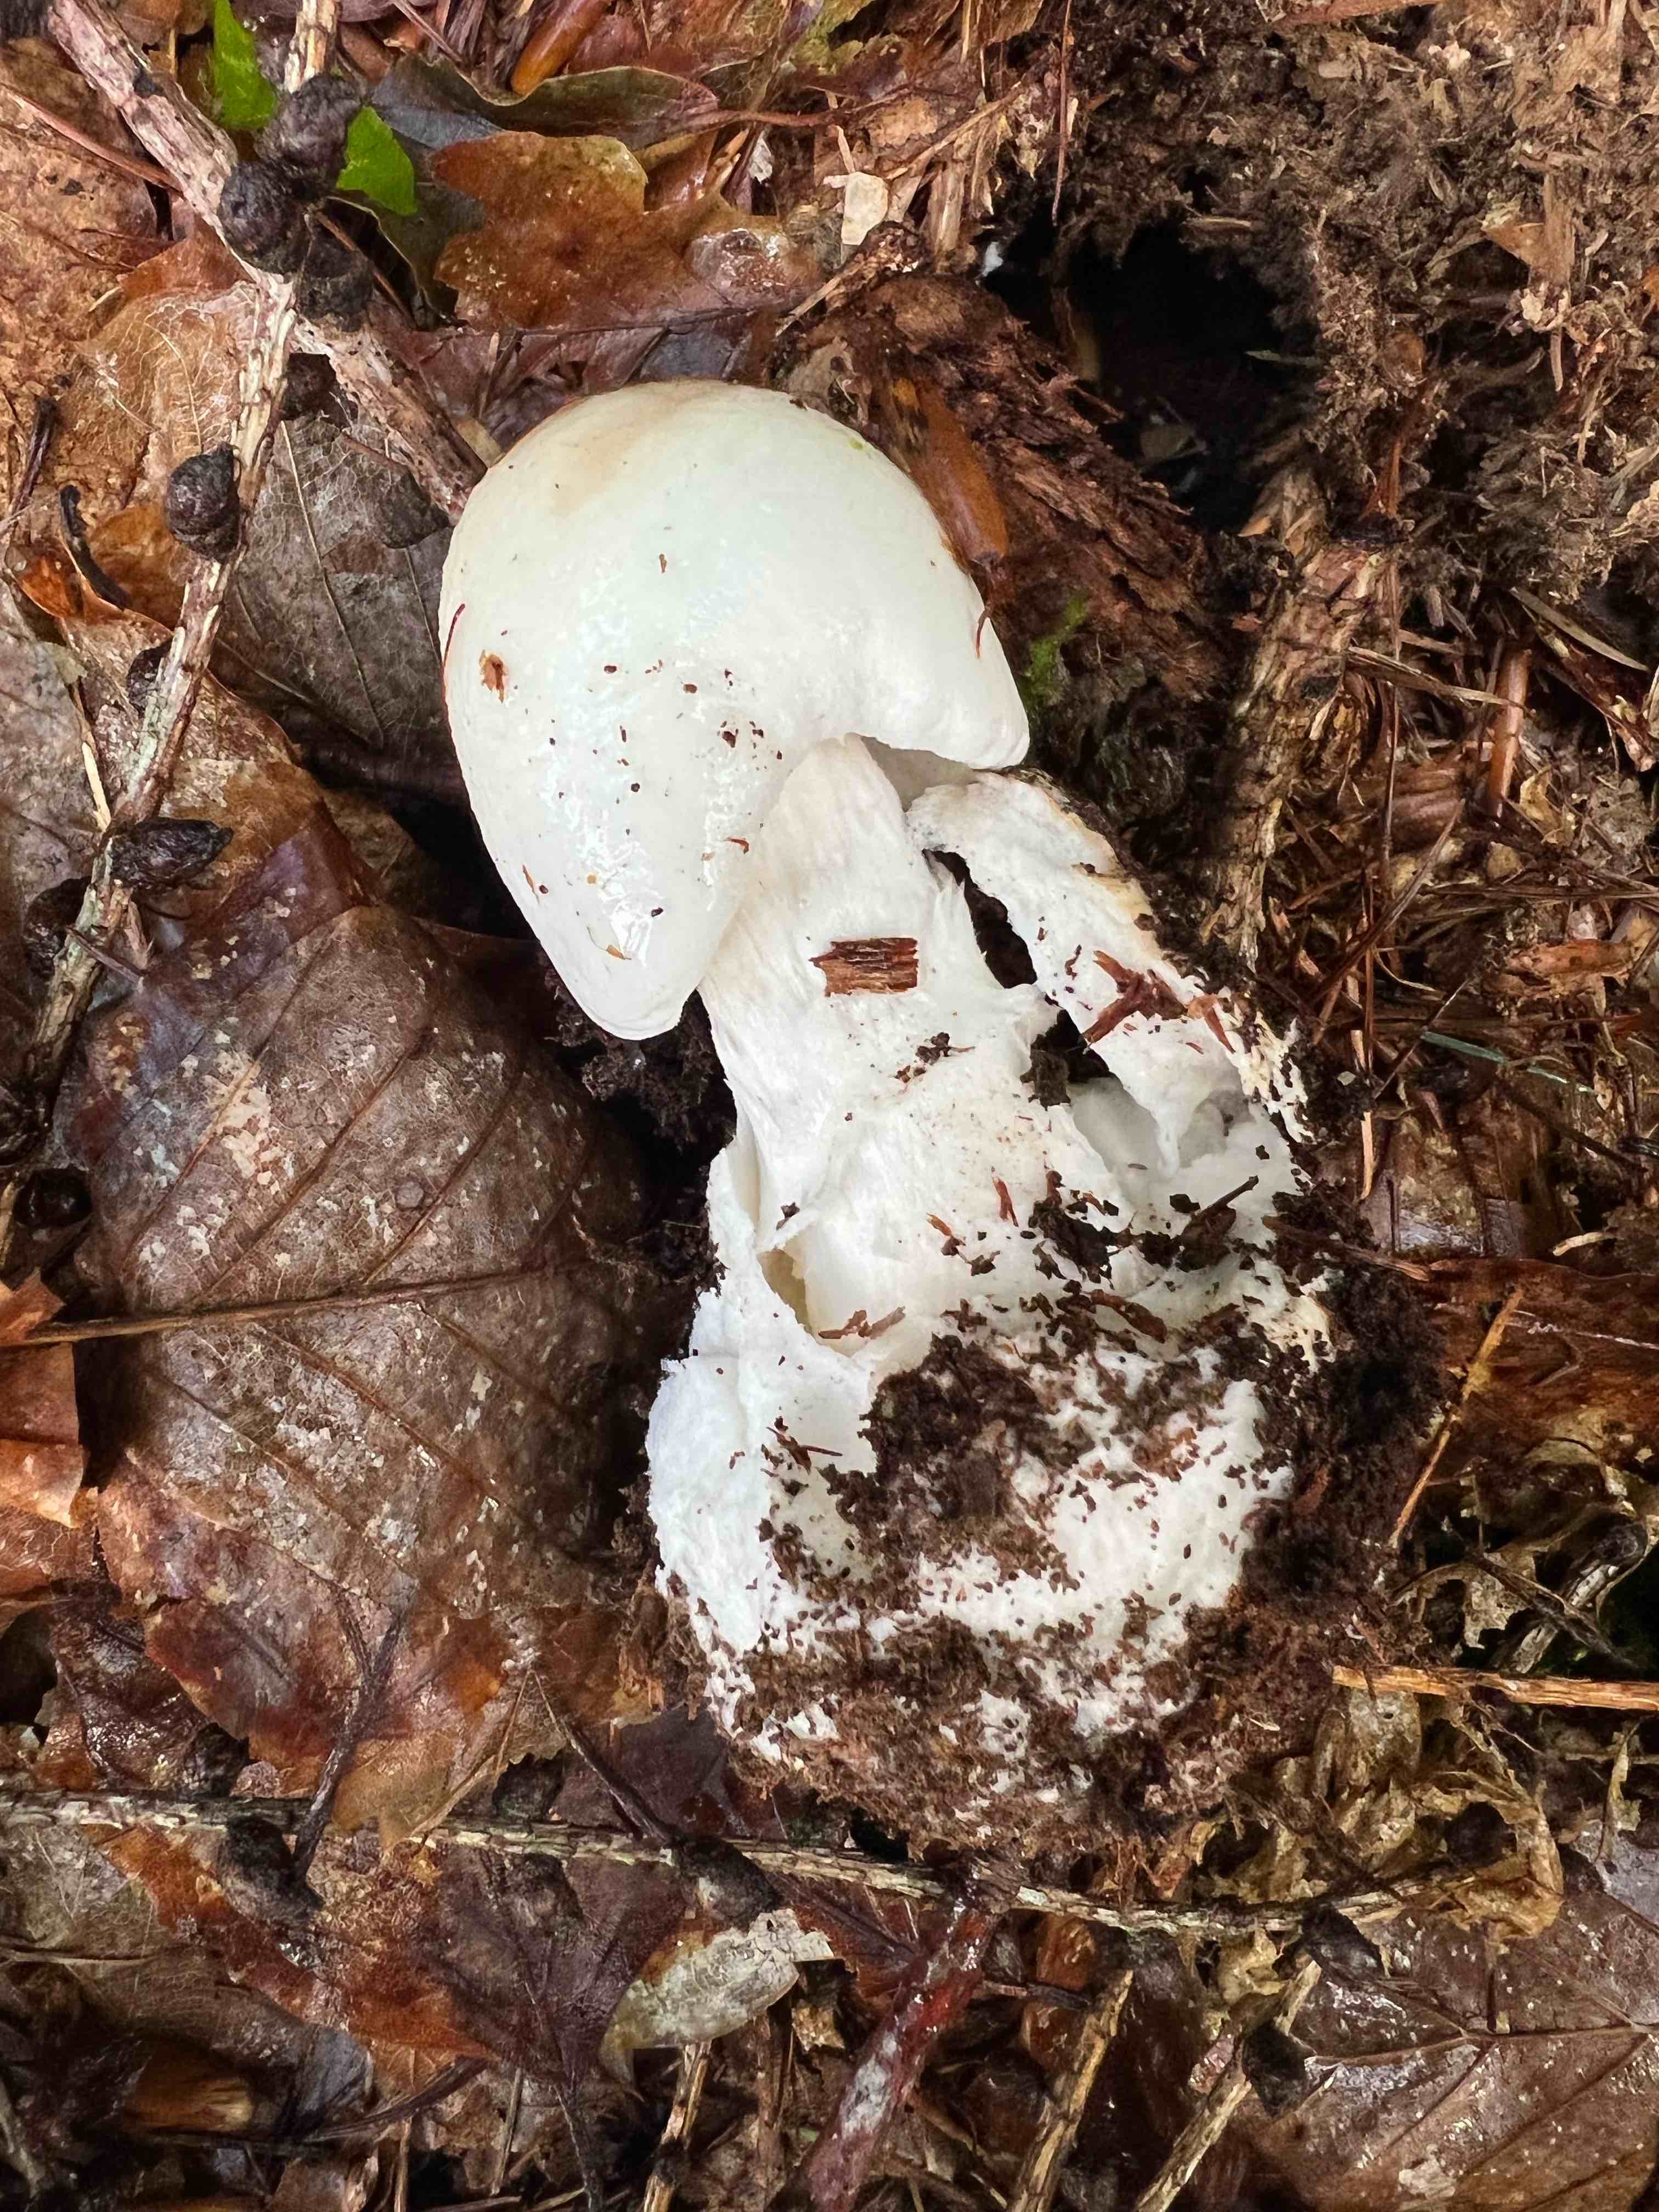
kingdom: Fungi
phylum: Basidiomycota
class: Agaricomycetes
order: Agaricales
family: Amanitaceae
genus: Amanita
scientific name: Amanita virosa
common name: snehvid fluesvamp
